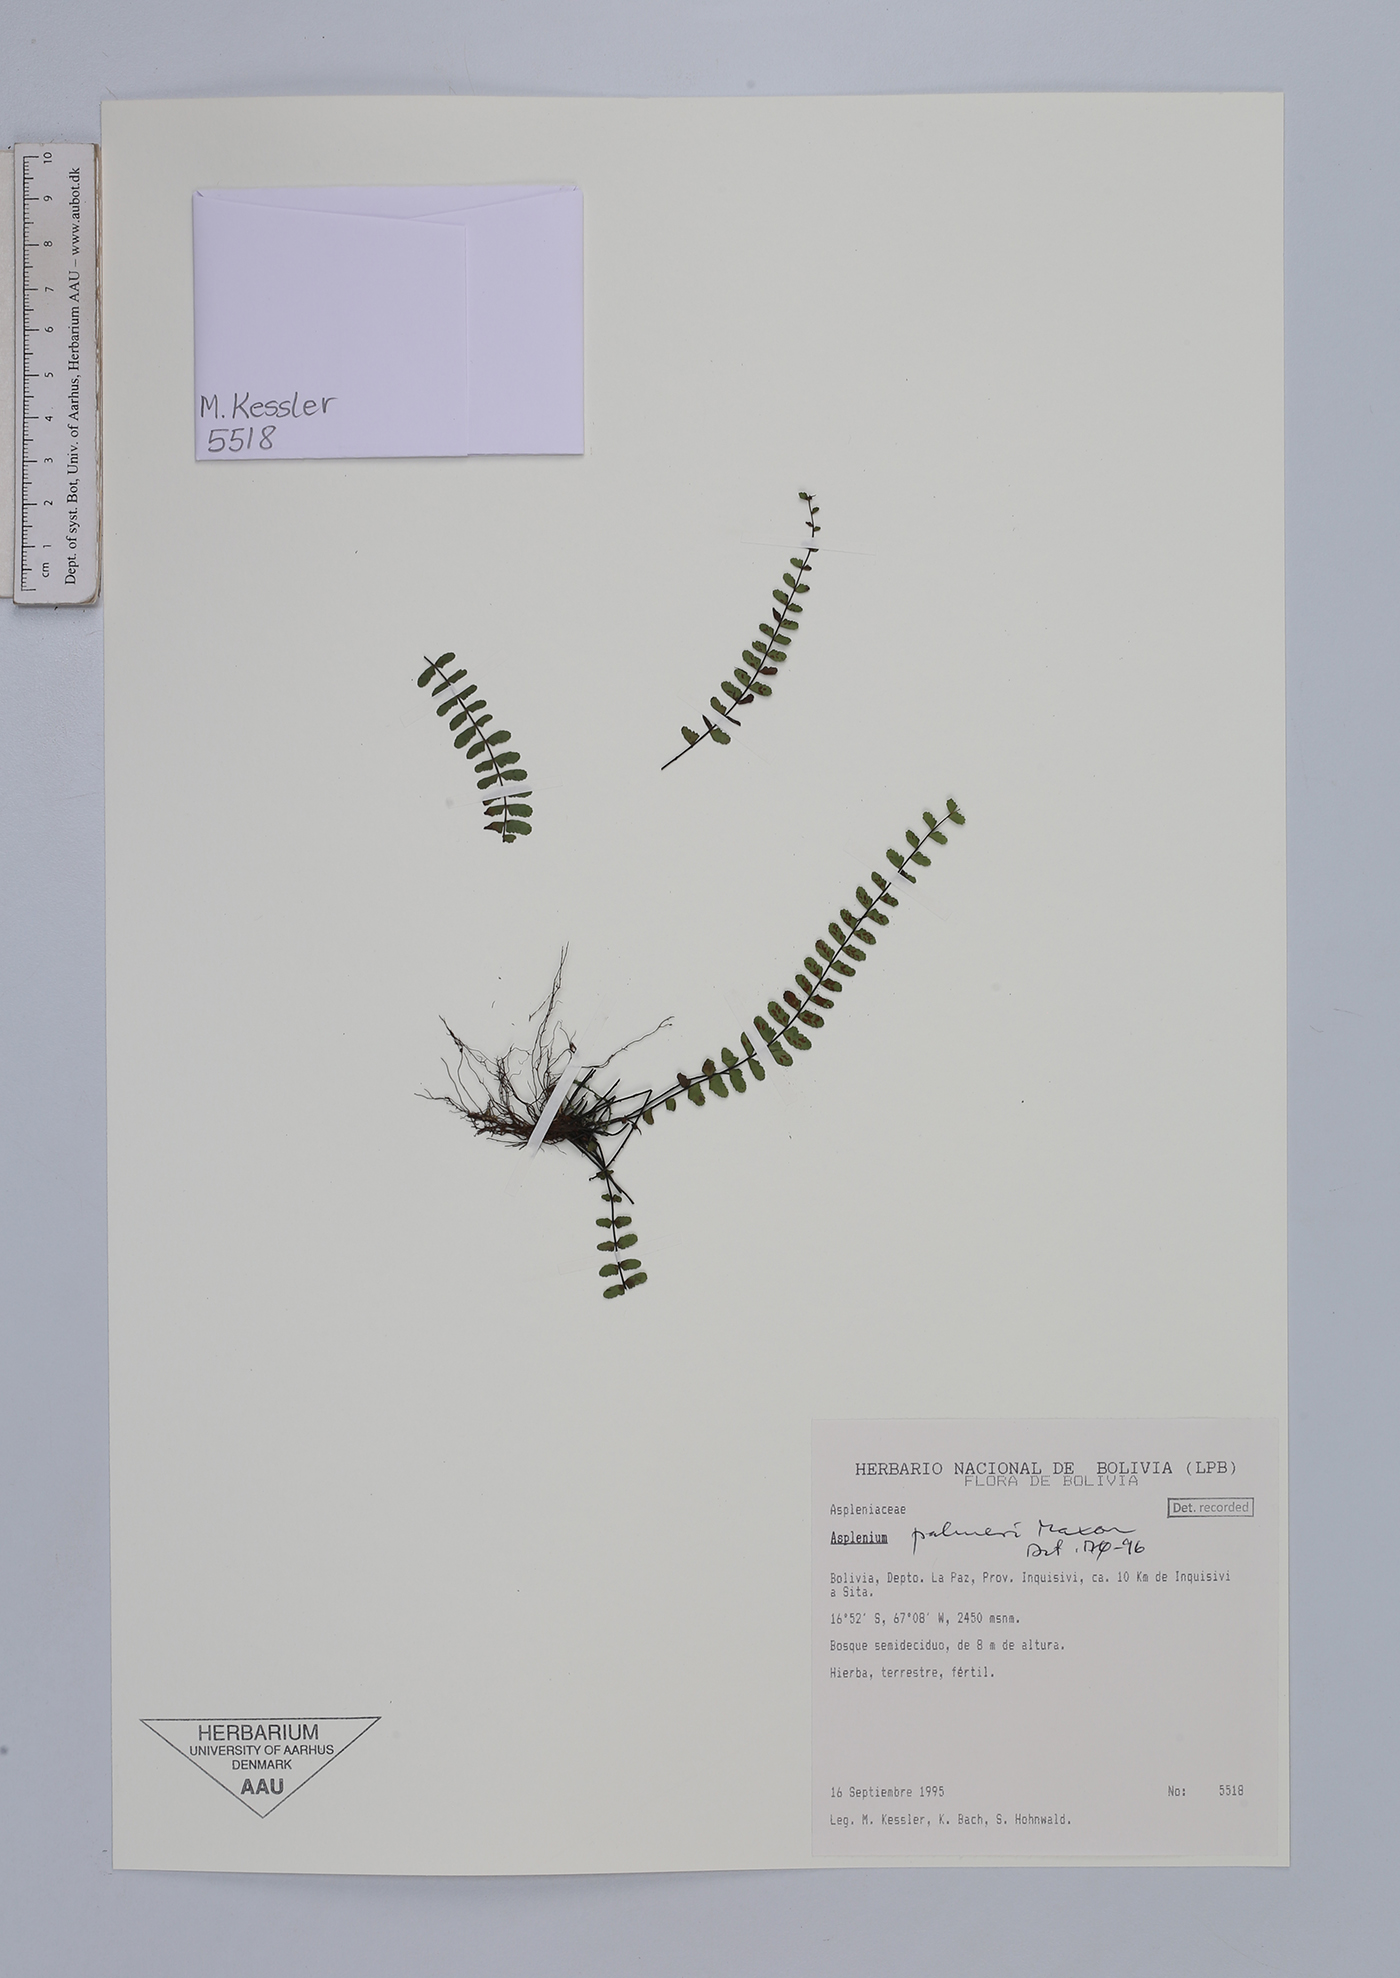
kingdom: Plantae
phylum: Tracheophyta
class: Polypodiopsida
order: Polypodiales
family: Aspleniaceae
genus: Asplenium
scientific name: Asplenium palmeri
